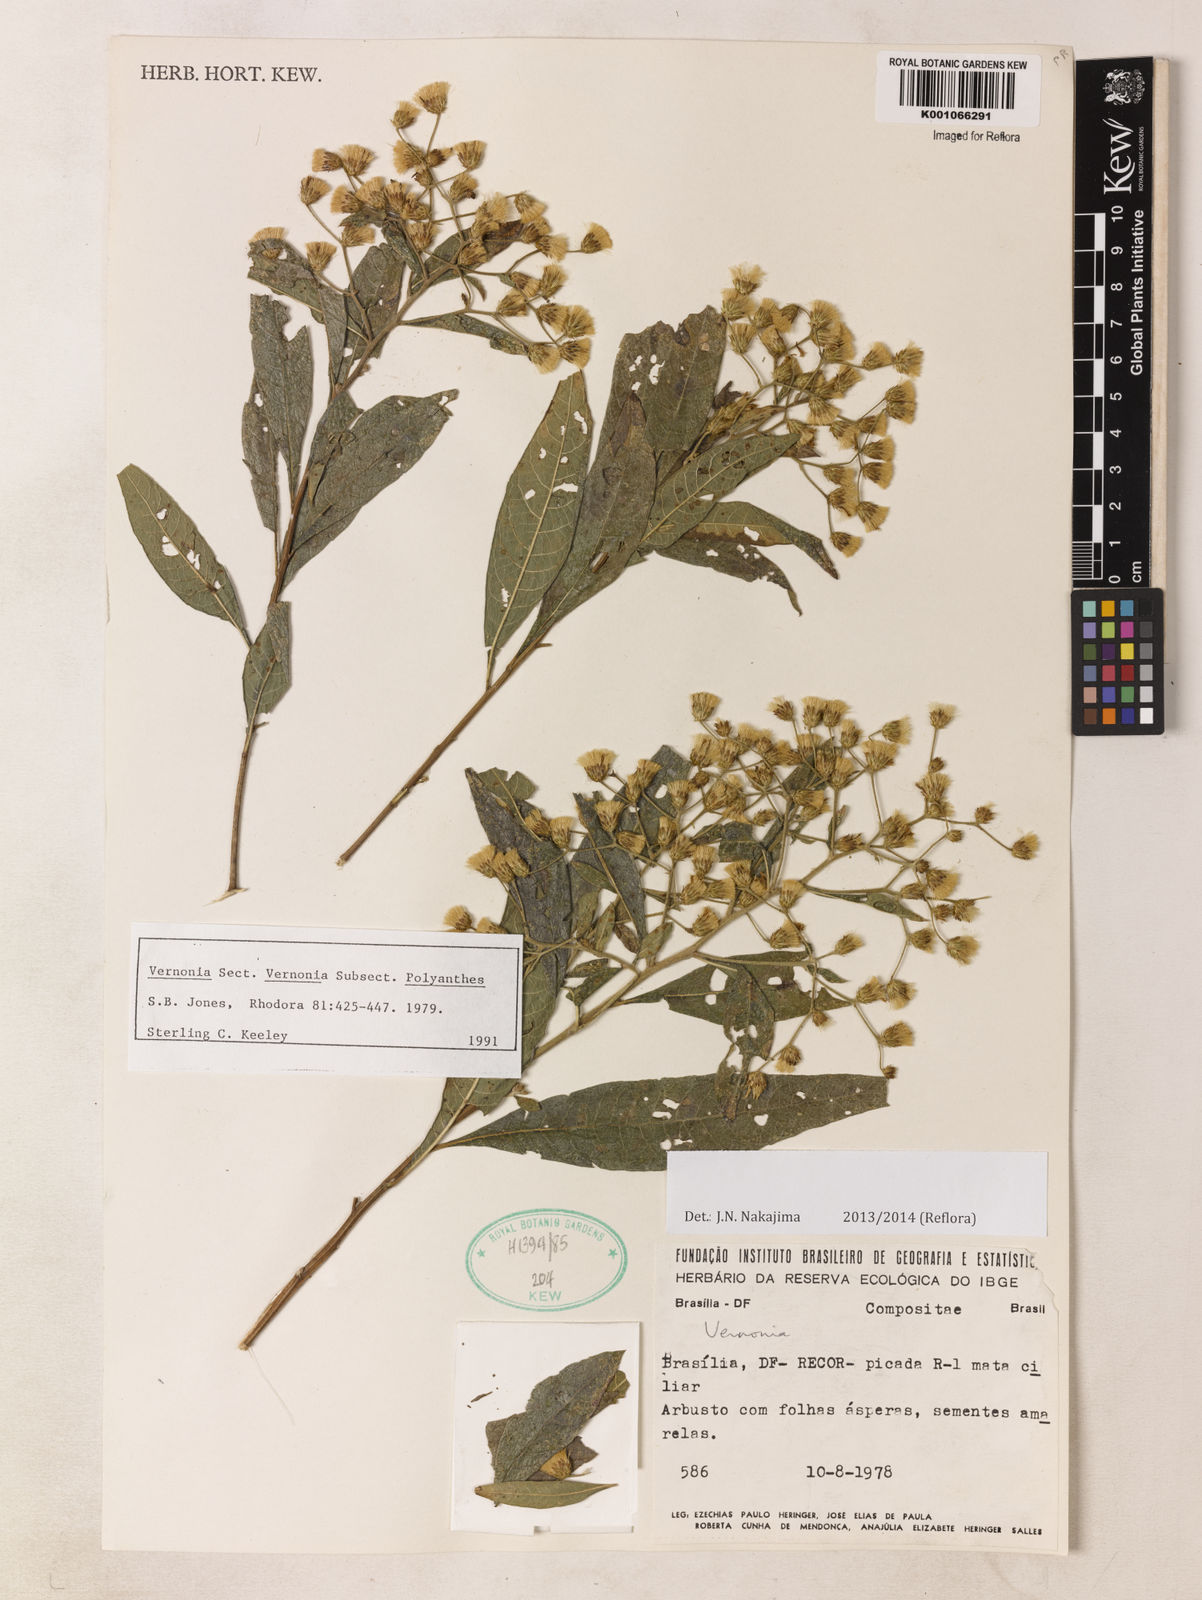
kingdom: Plantae
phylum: Tracheophyta
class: Magnoliopsida
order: Asterales
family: Asteraceae
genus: Vernonanthura
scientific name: Vernonanthura polyanthes
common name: Tree aster
